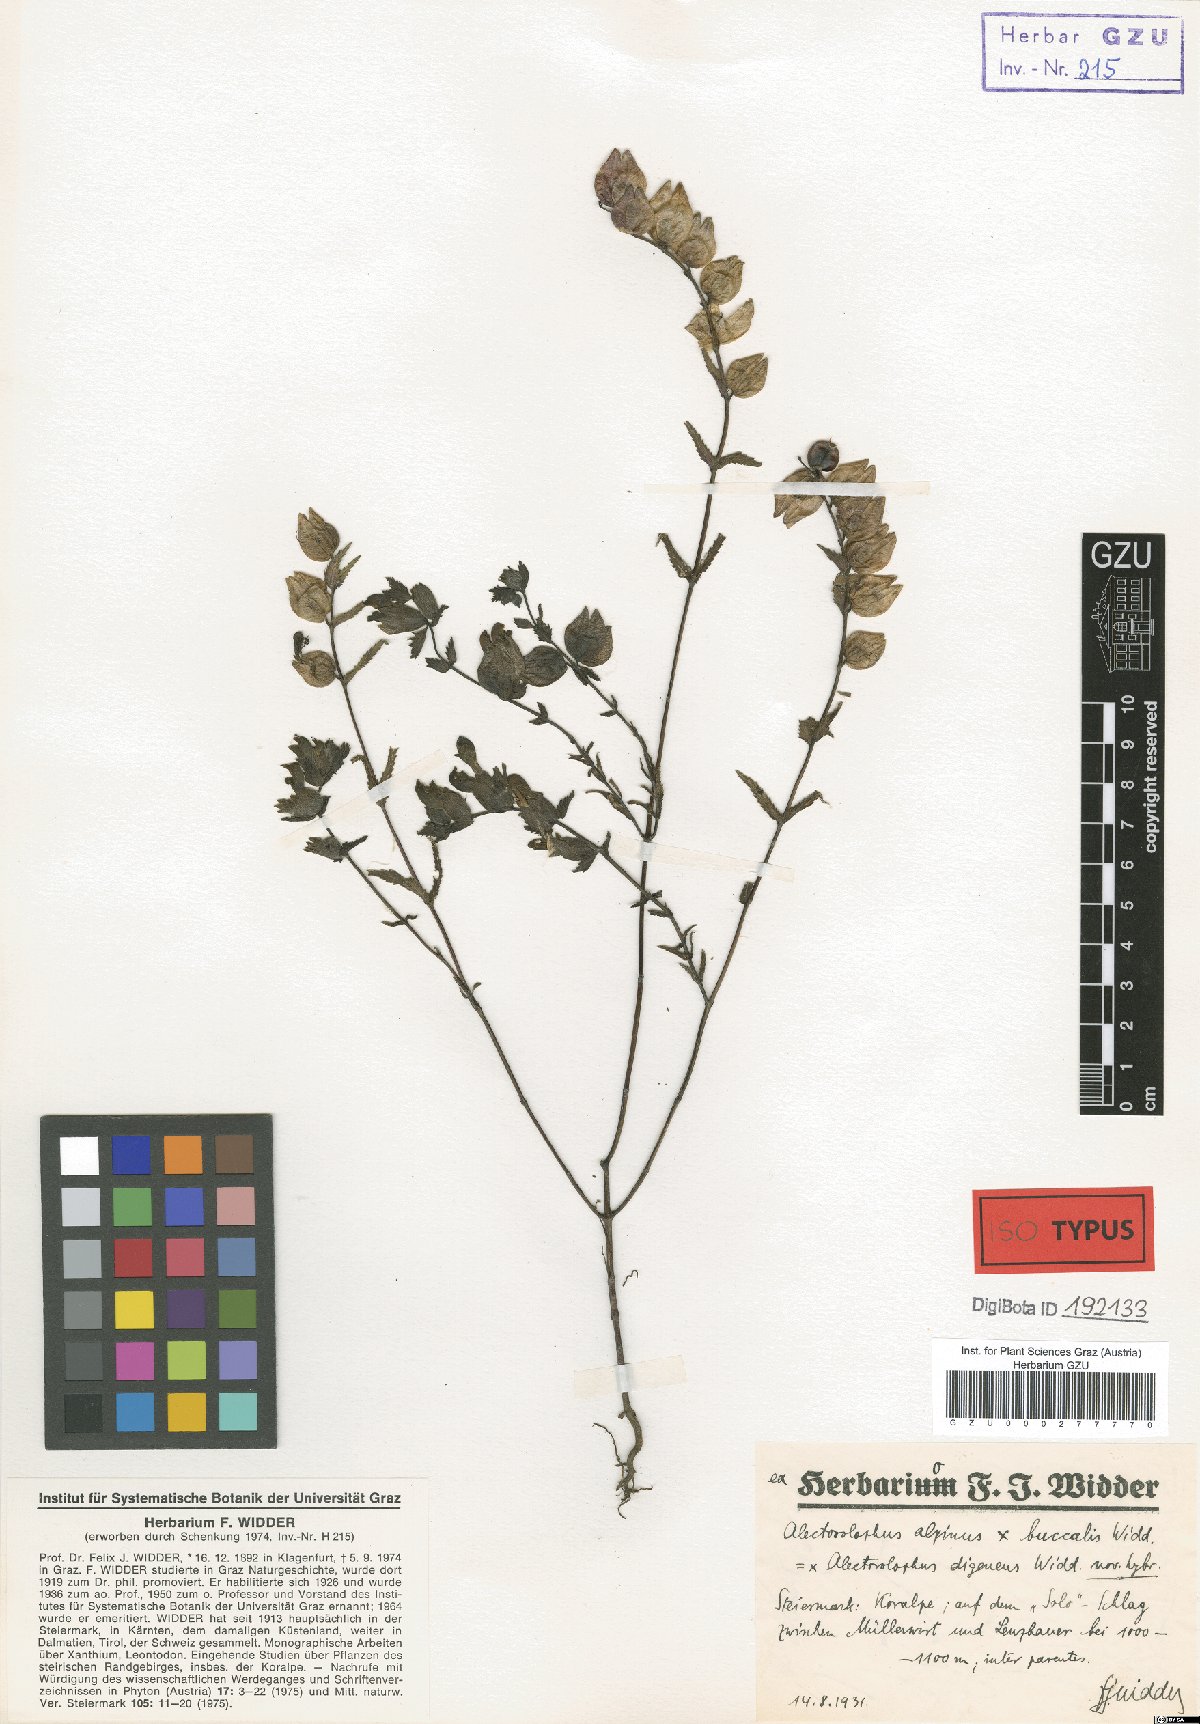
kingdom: Plantae
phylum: Tracheophyta
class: Magnoliopsida
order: Lamiales
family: Scrophulariaceae
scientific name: Scrophulariaceae
